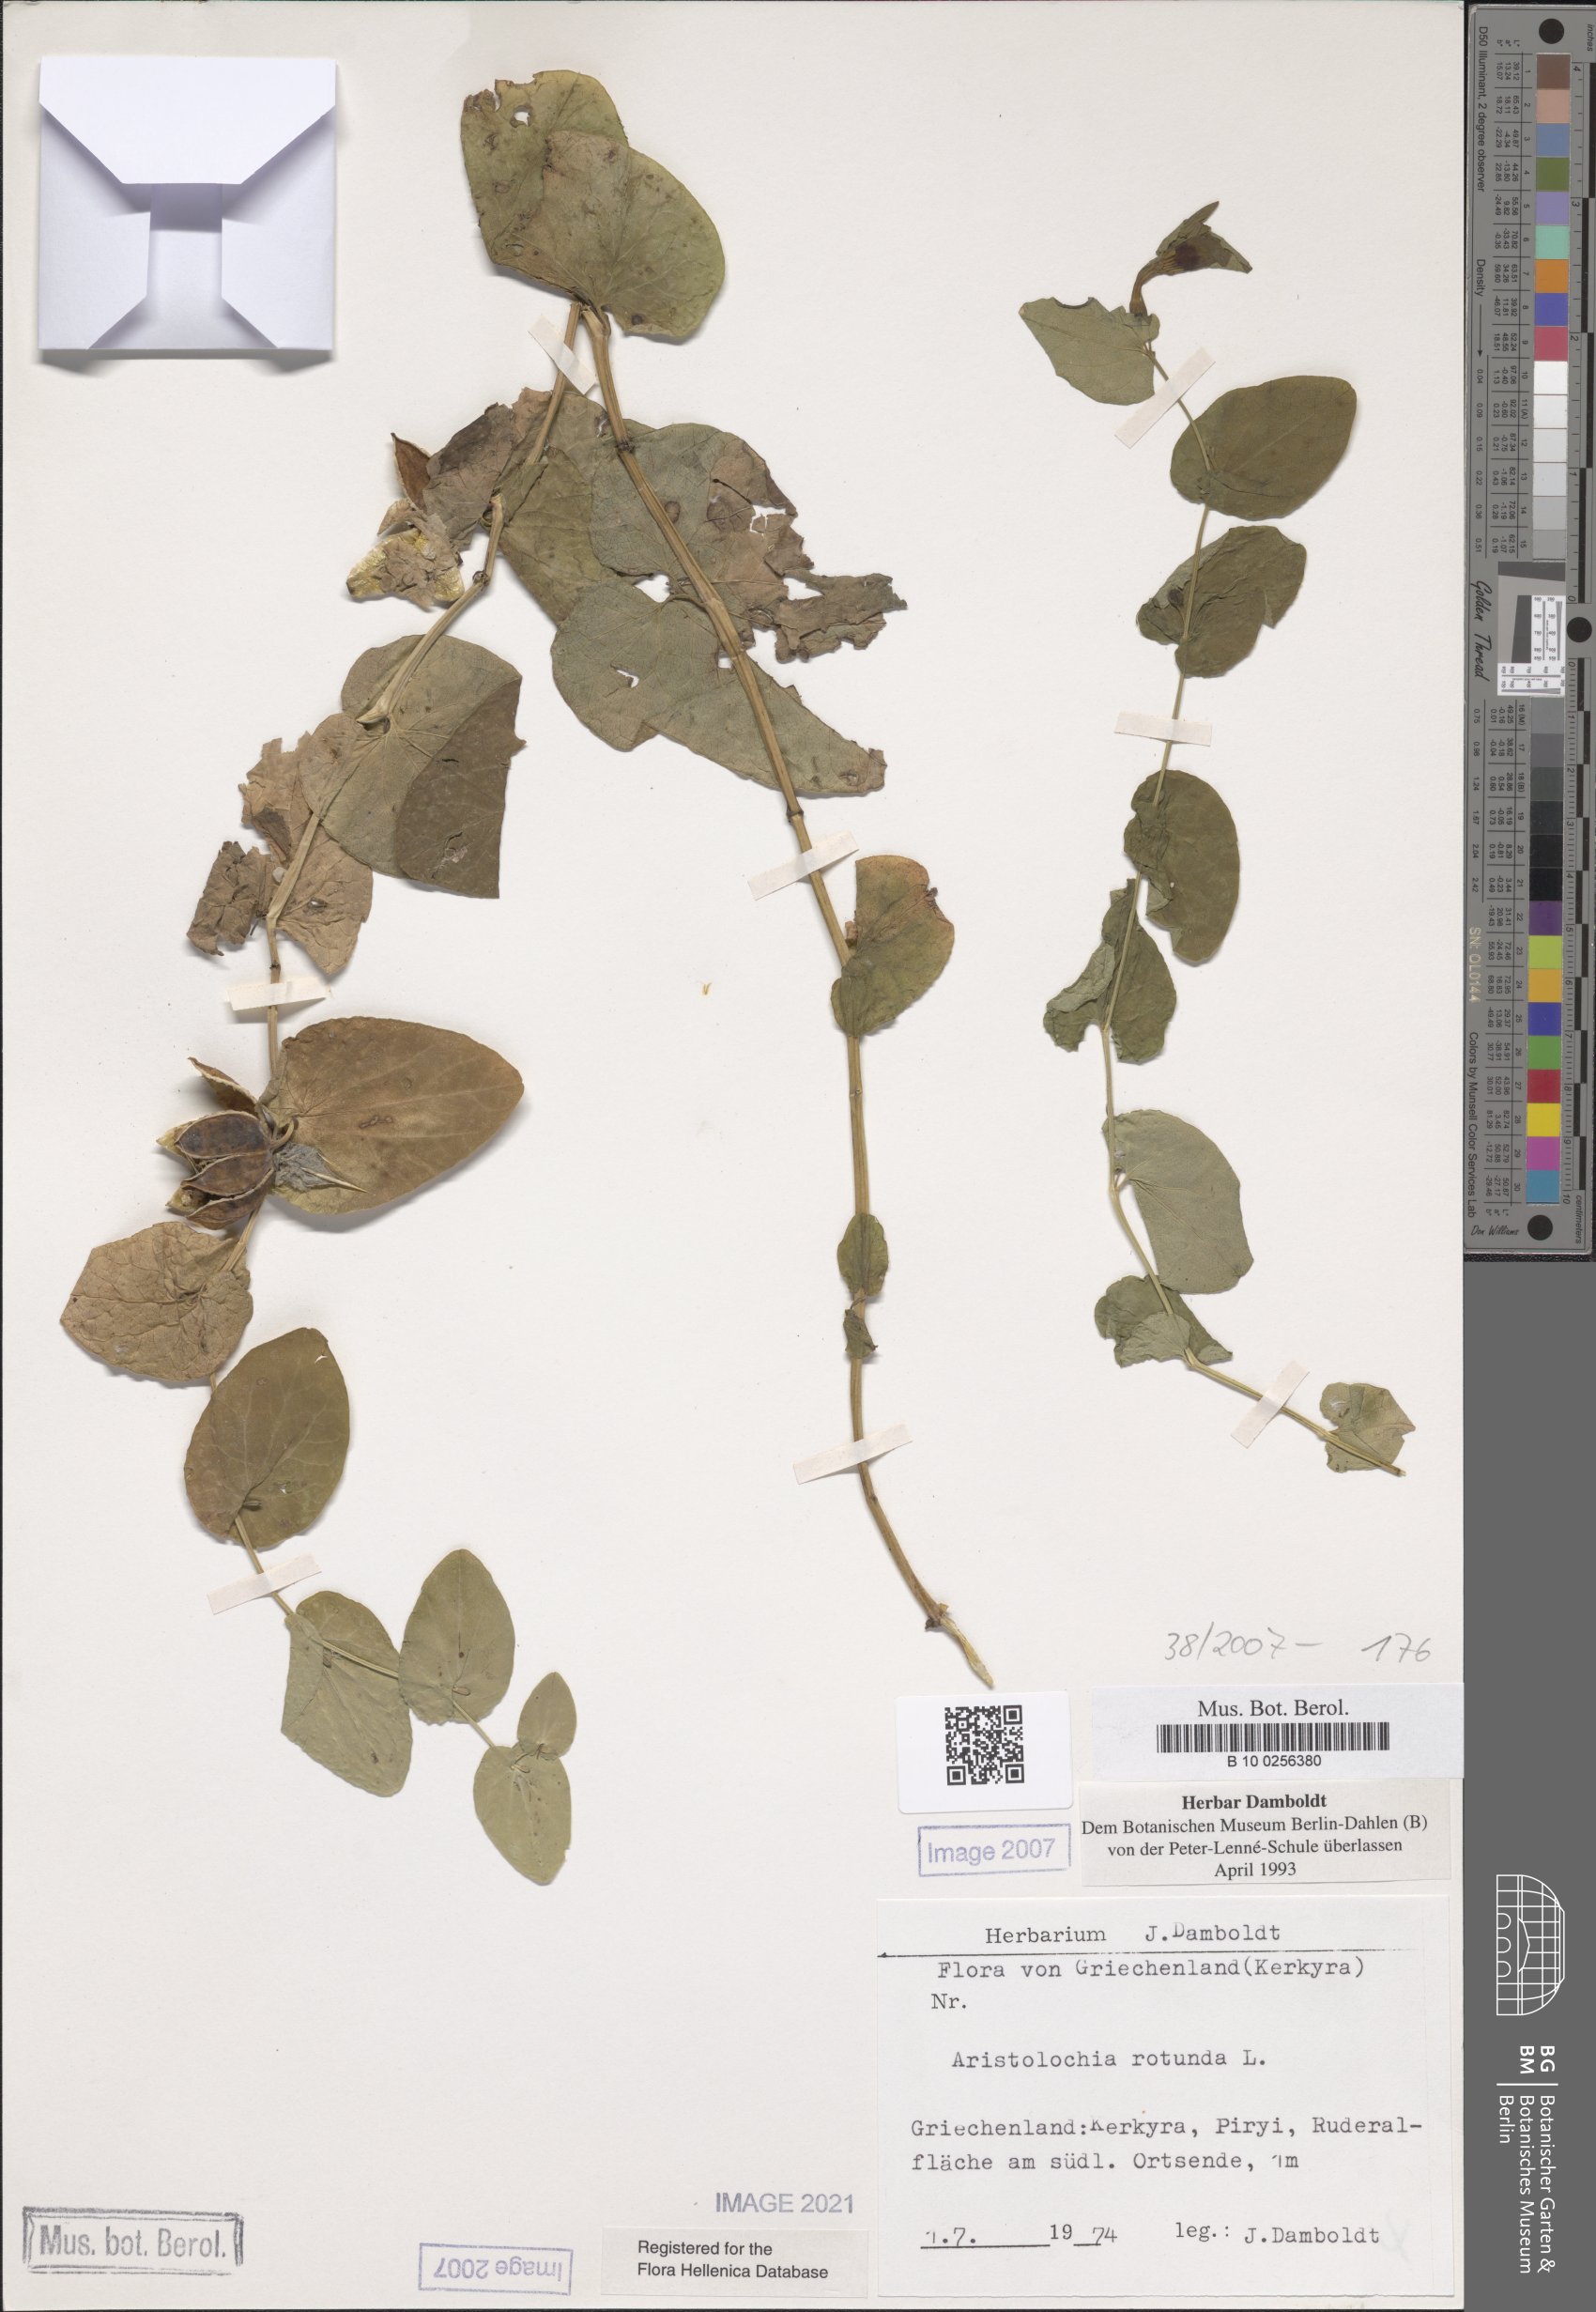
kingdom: Plantae
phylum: Tracheophyta
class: Magnoliopsida
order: Piperales
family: Aristolochiaceae
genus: Aristolochia
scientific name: Aristolochia rotunda
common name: Smearwort
